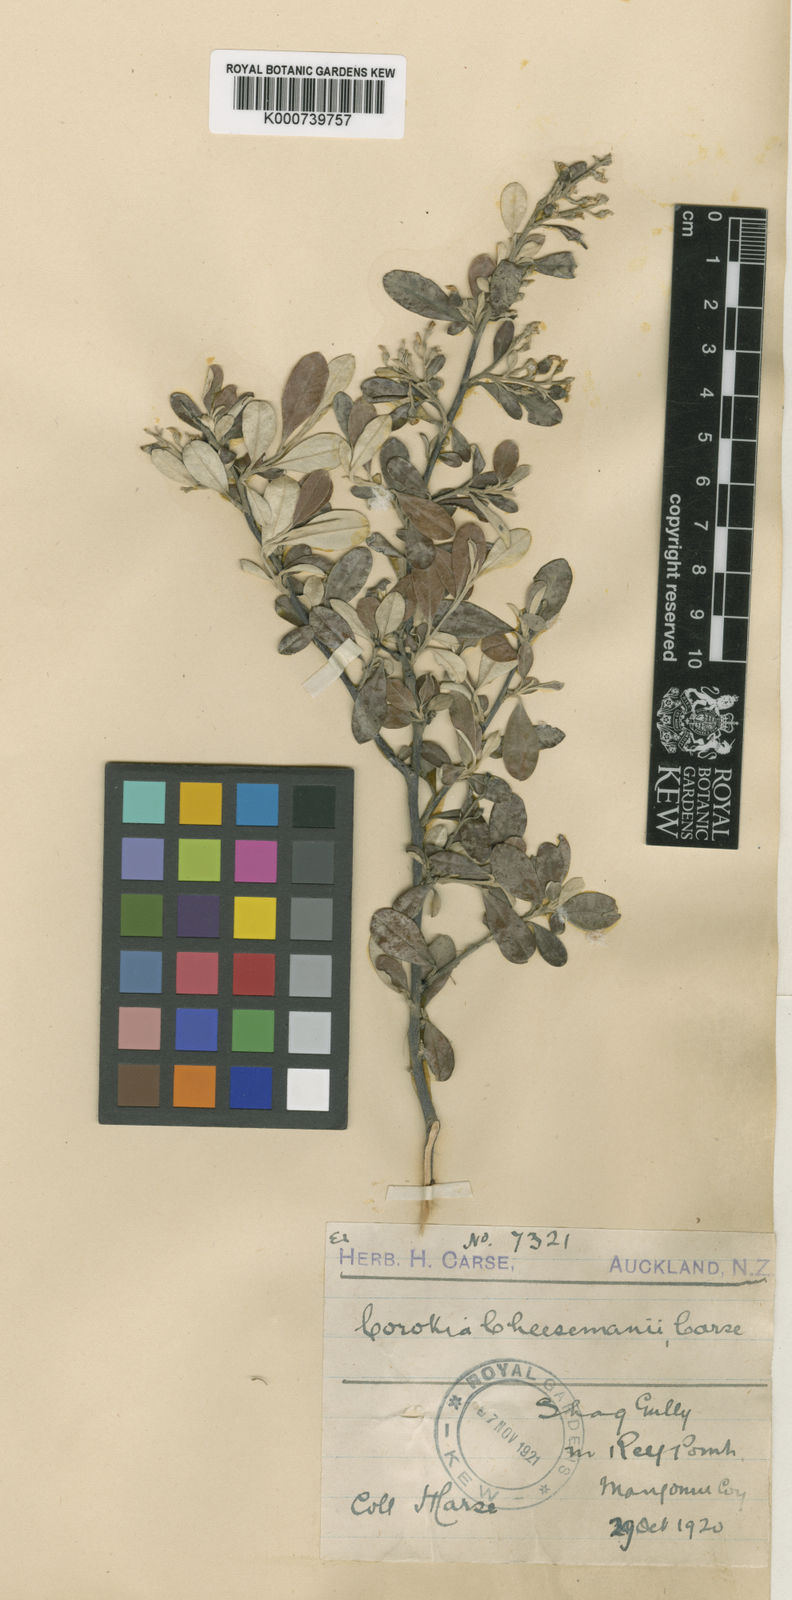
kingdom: Plantae
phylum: Tracheophyta
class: Magnoliopsida
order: Asterales
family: Argophyllaceae
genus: Corokia
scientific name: Corokia virgata
